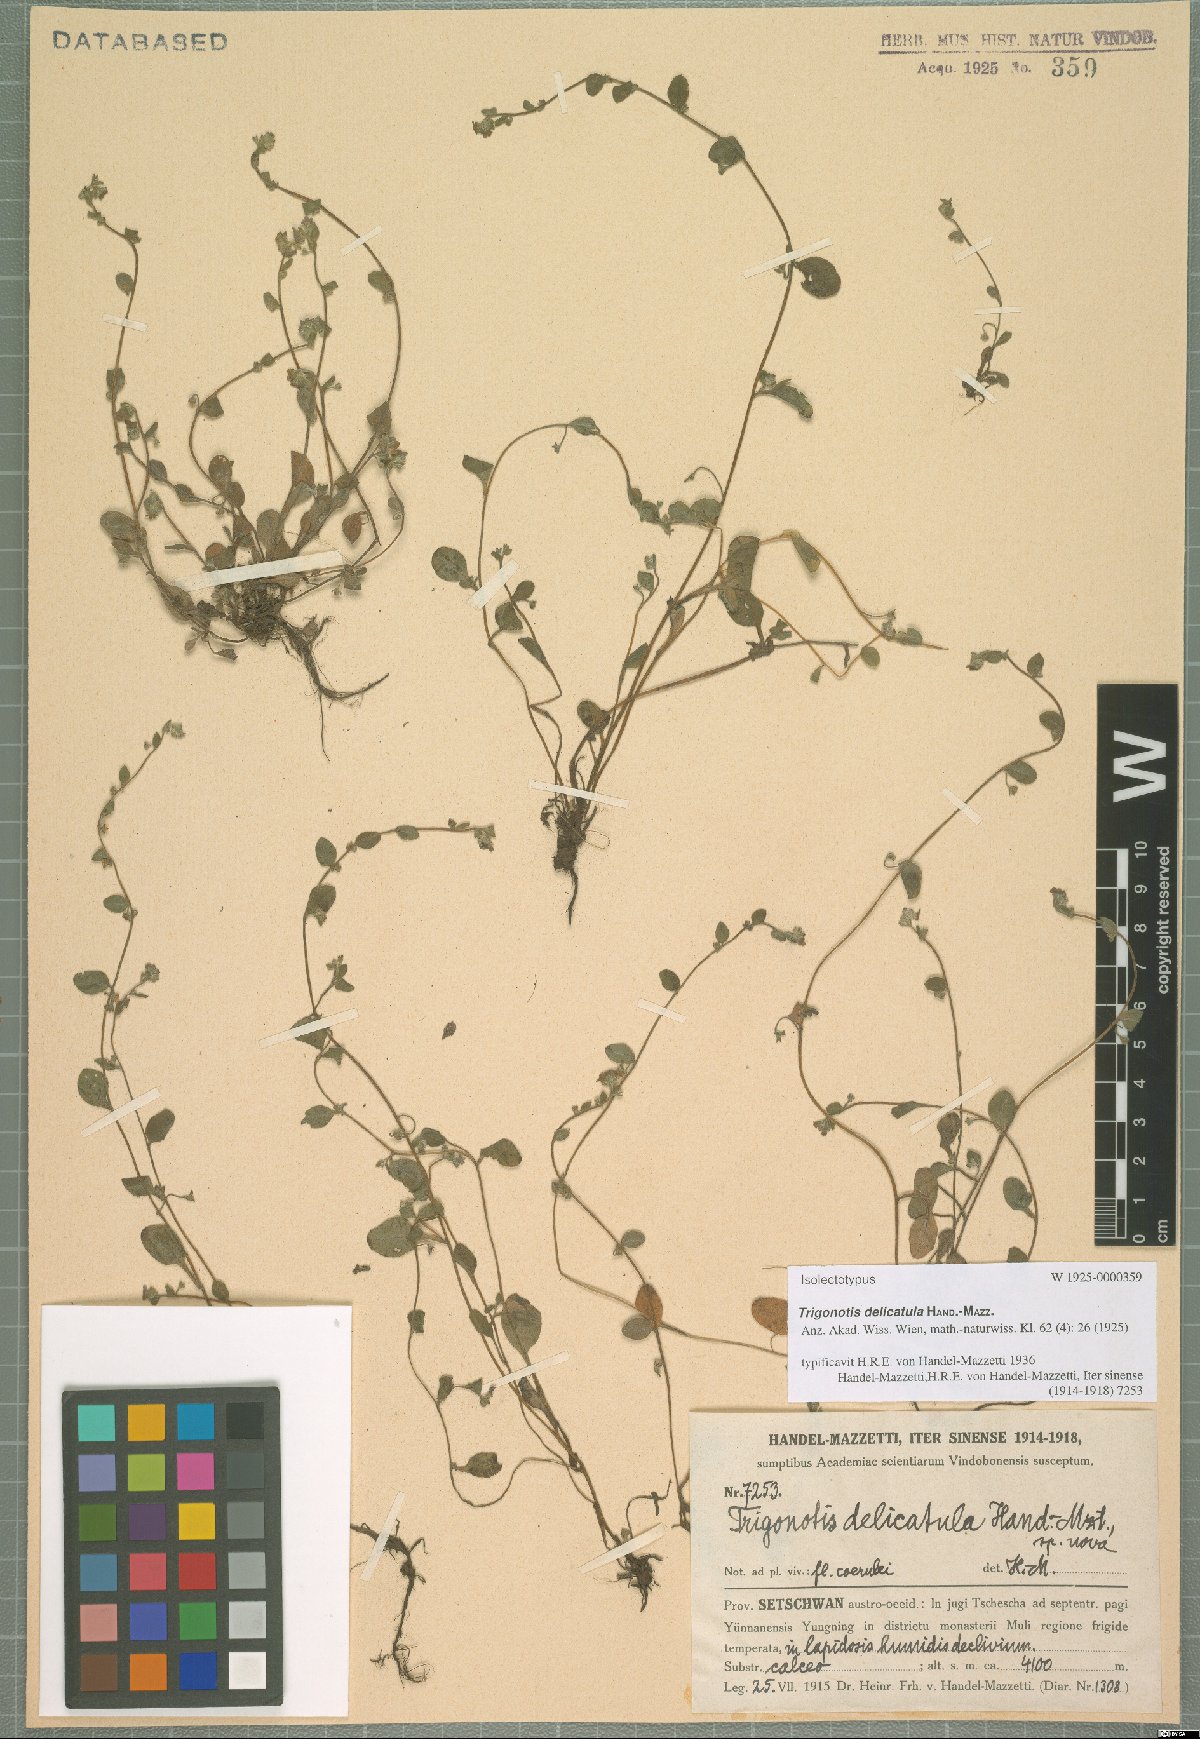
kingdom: Plantae
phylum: Tracheophyta
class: Magnoliopsida
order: Boraginales
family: Boraginaceae
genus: Trigonotis
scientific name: Trigonotis delicatula
